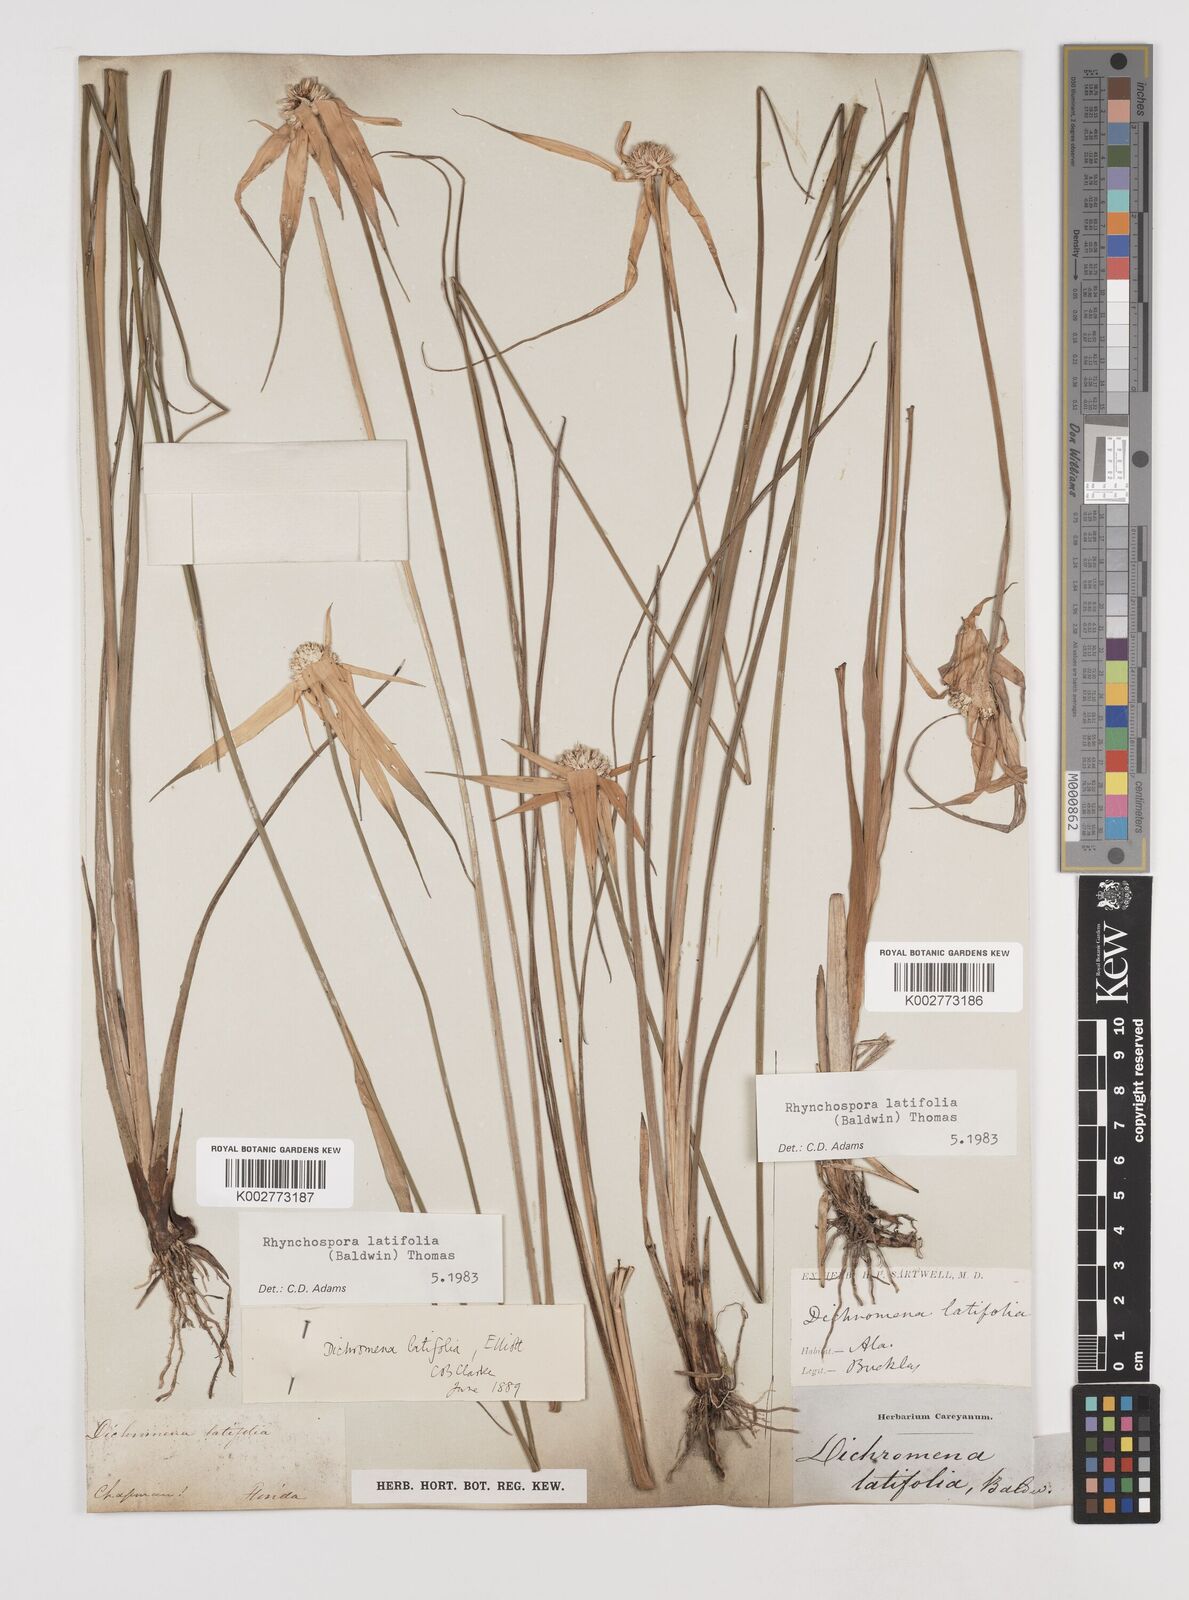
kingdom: Plantae
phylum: Tracheophyta
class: Liliopsida
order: Poales
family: Cyperaceae
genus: Rhynchospora
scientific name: Rhynchospora latifolia
